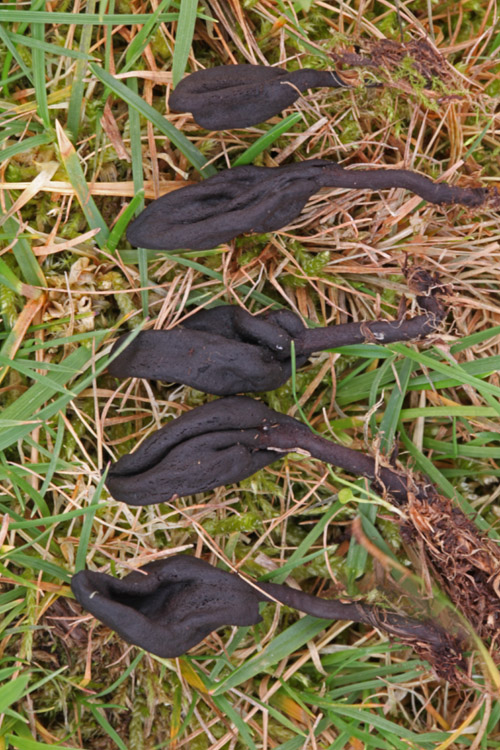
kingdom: Fungi
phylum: Ascomycota
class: Geoglossomycetes
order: Geoglossales
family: Geoglossaceae
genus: Geoglossum
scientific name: Geoglossum umbratile
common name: slank jordtunge
